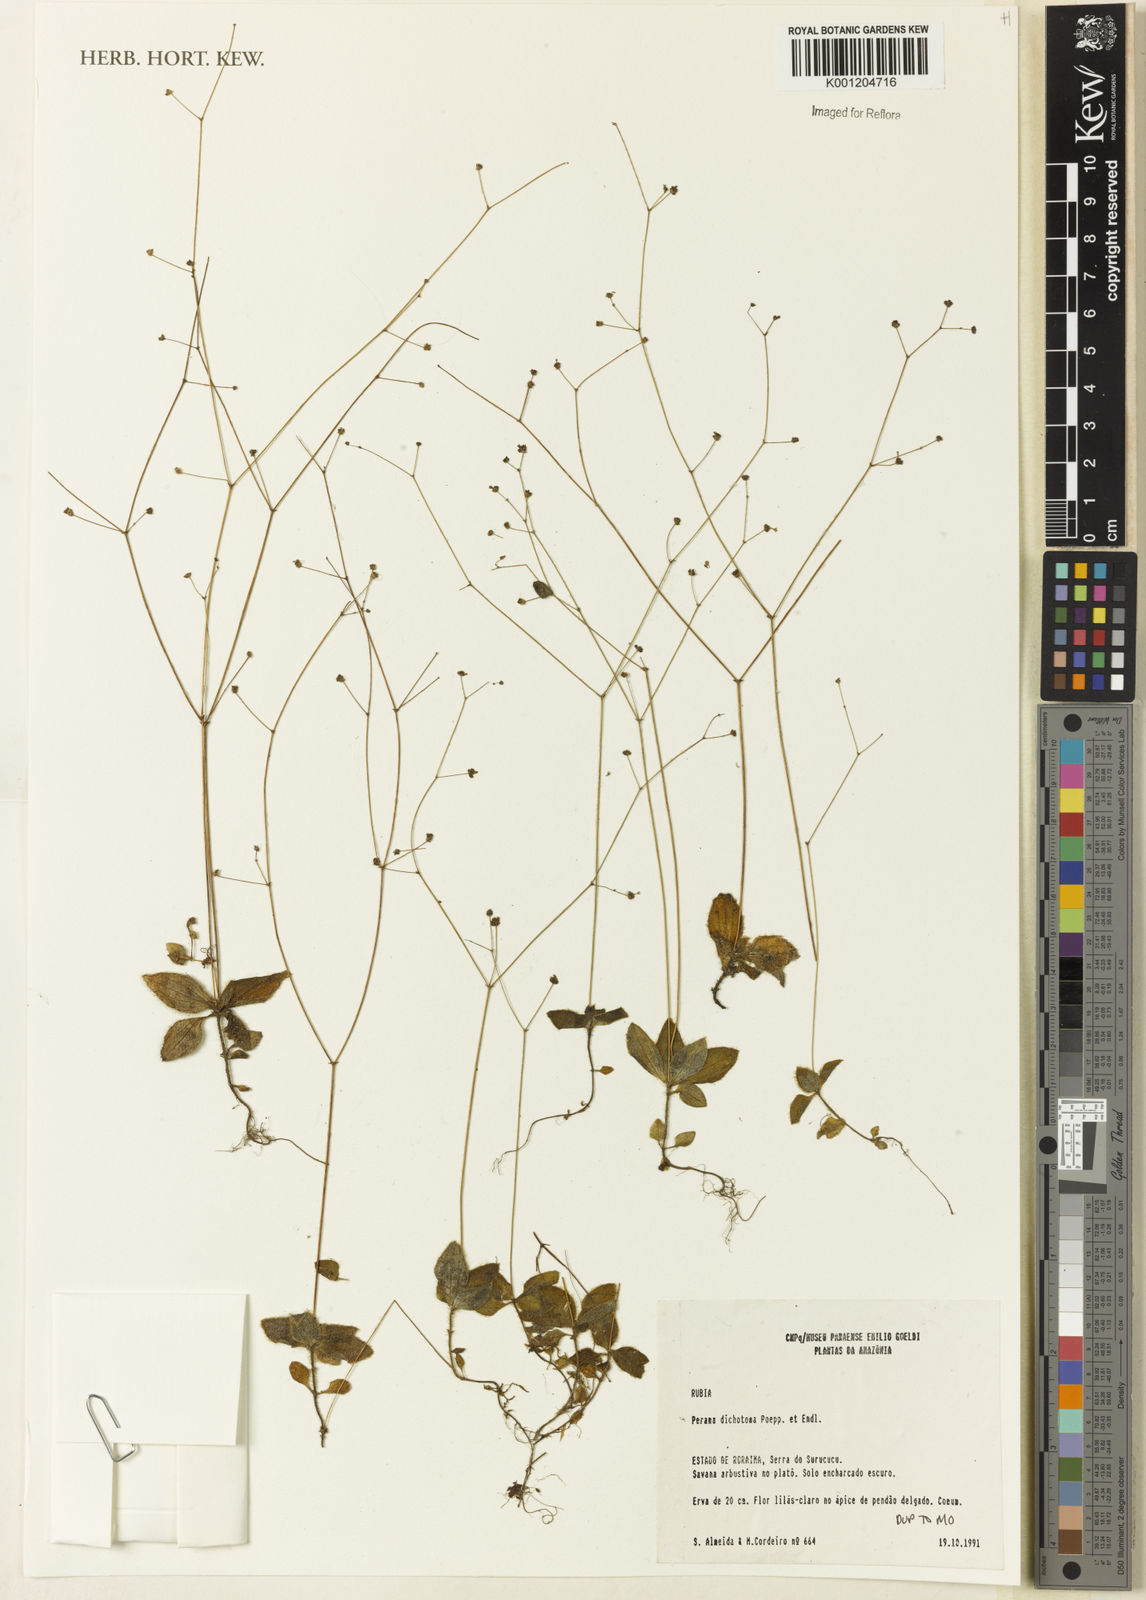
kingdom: Plantae
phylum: Tracheophyta
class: Magnoliopsida
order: Gentianales
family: Rubiaceae
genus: Perama
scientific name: Perama dichotoma
